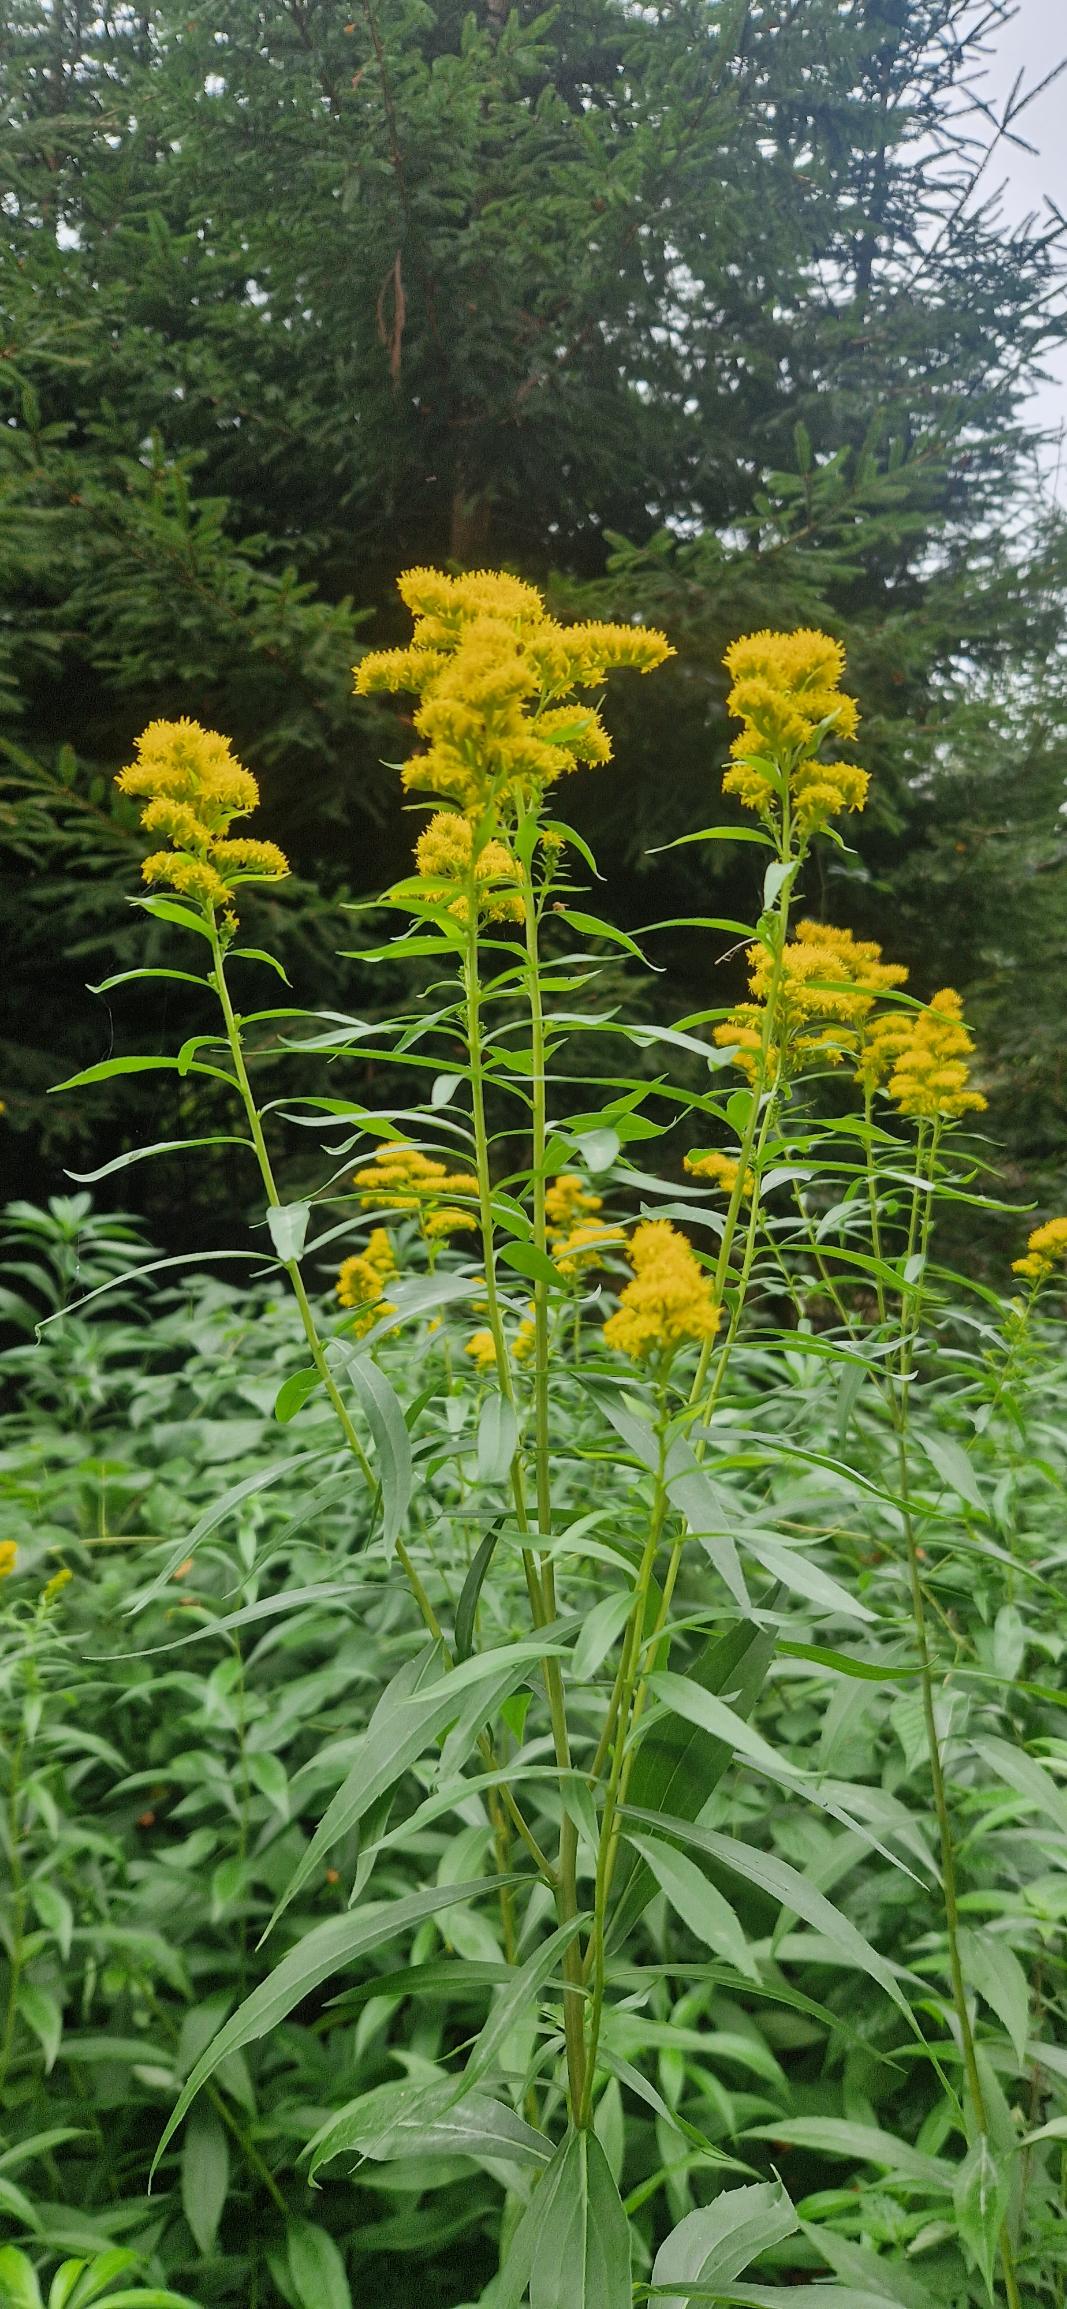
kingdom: Plantae
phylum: Tracheophyta
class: Magnoliopsida
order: Asterales
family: Asteraceae
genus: Solidago
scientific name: Solidago canadensis
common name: Kanadisk gyldenris
